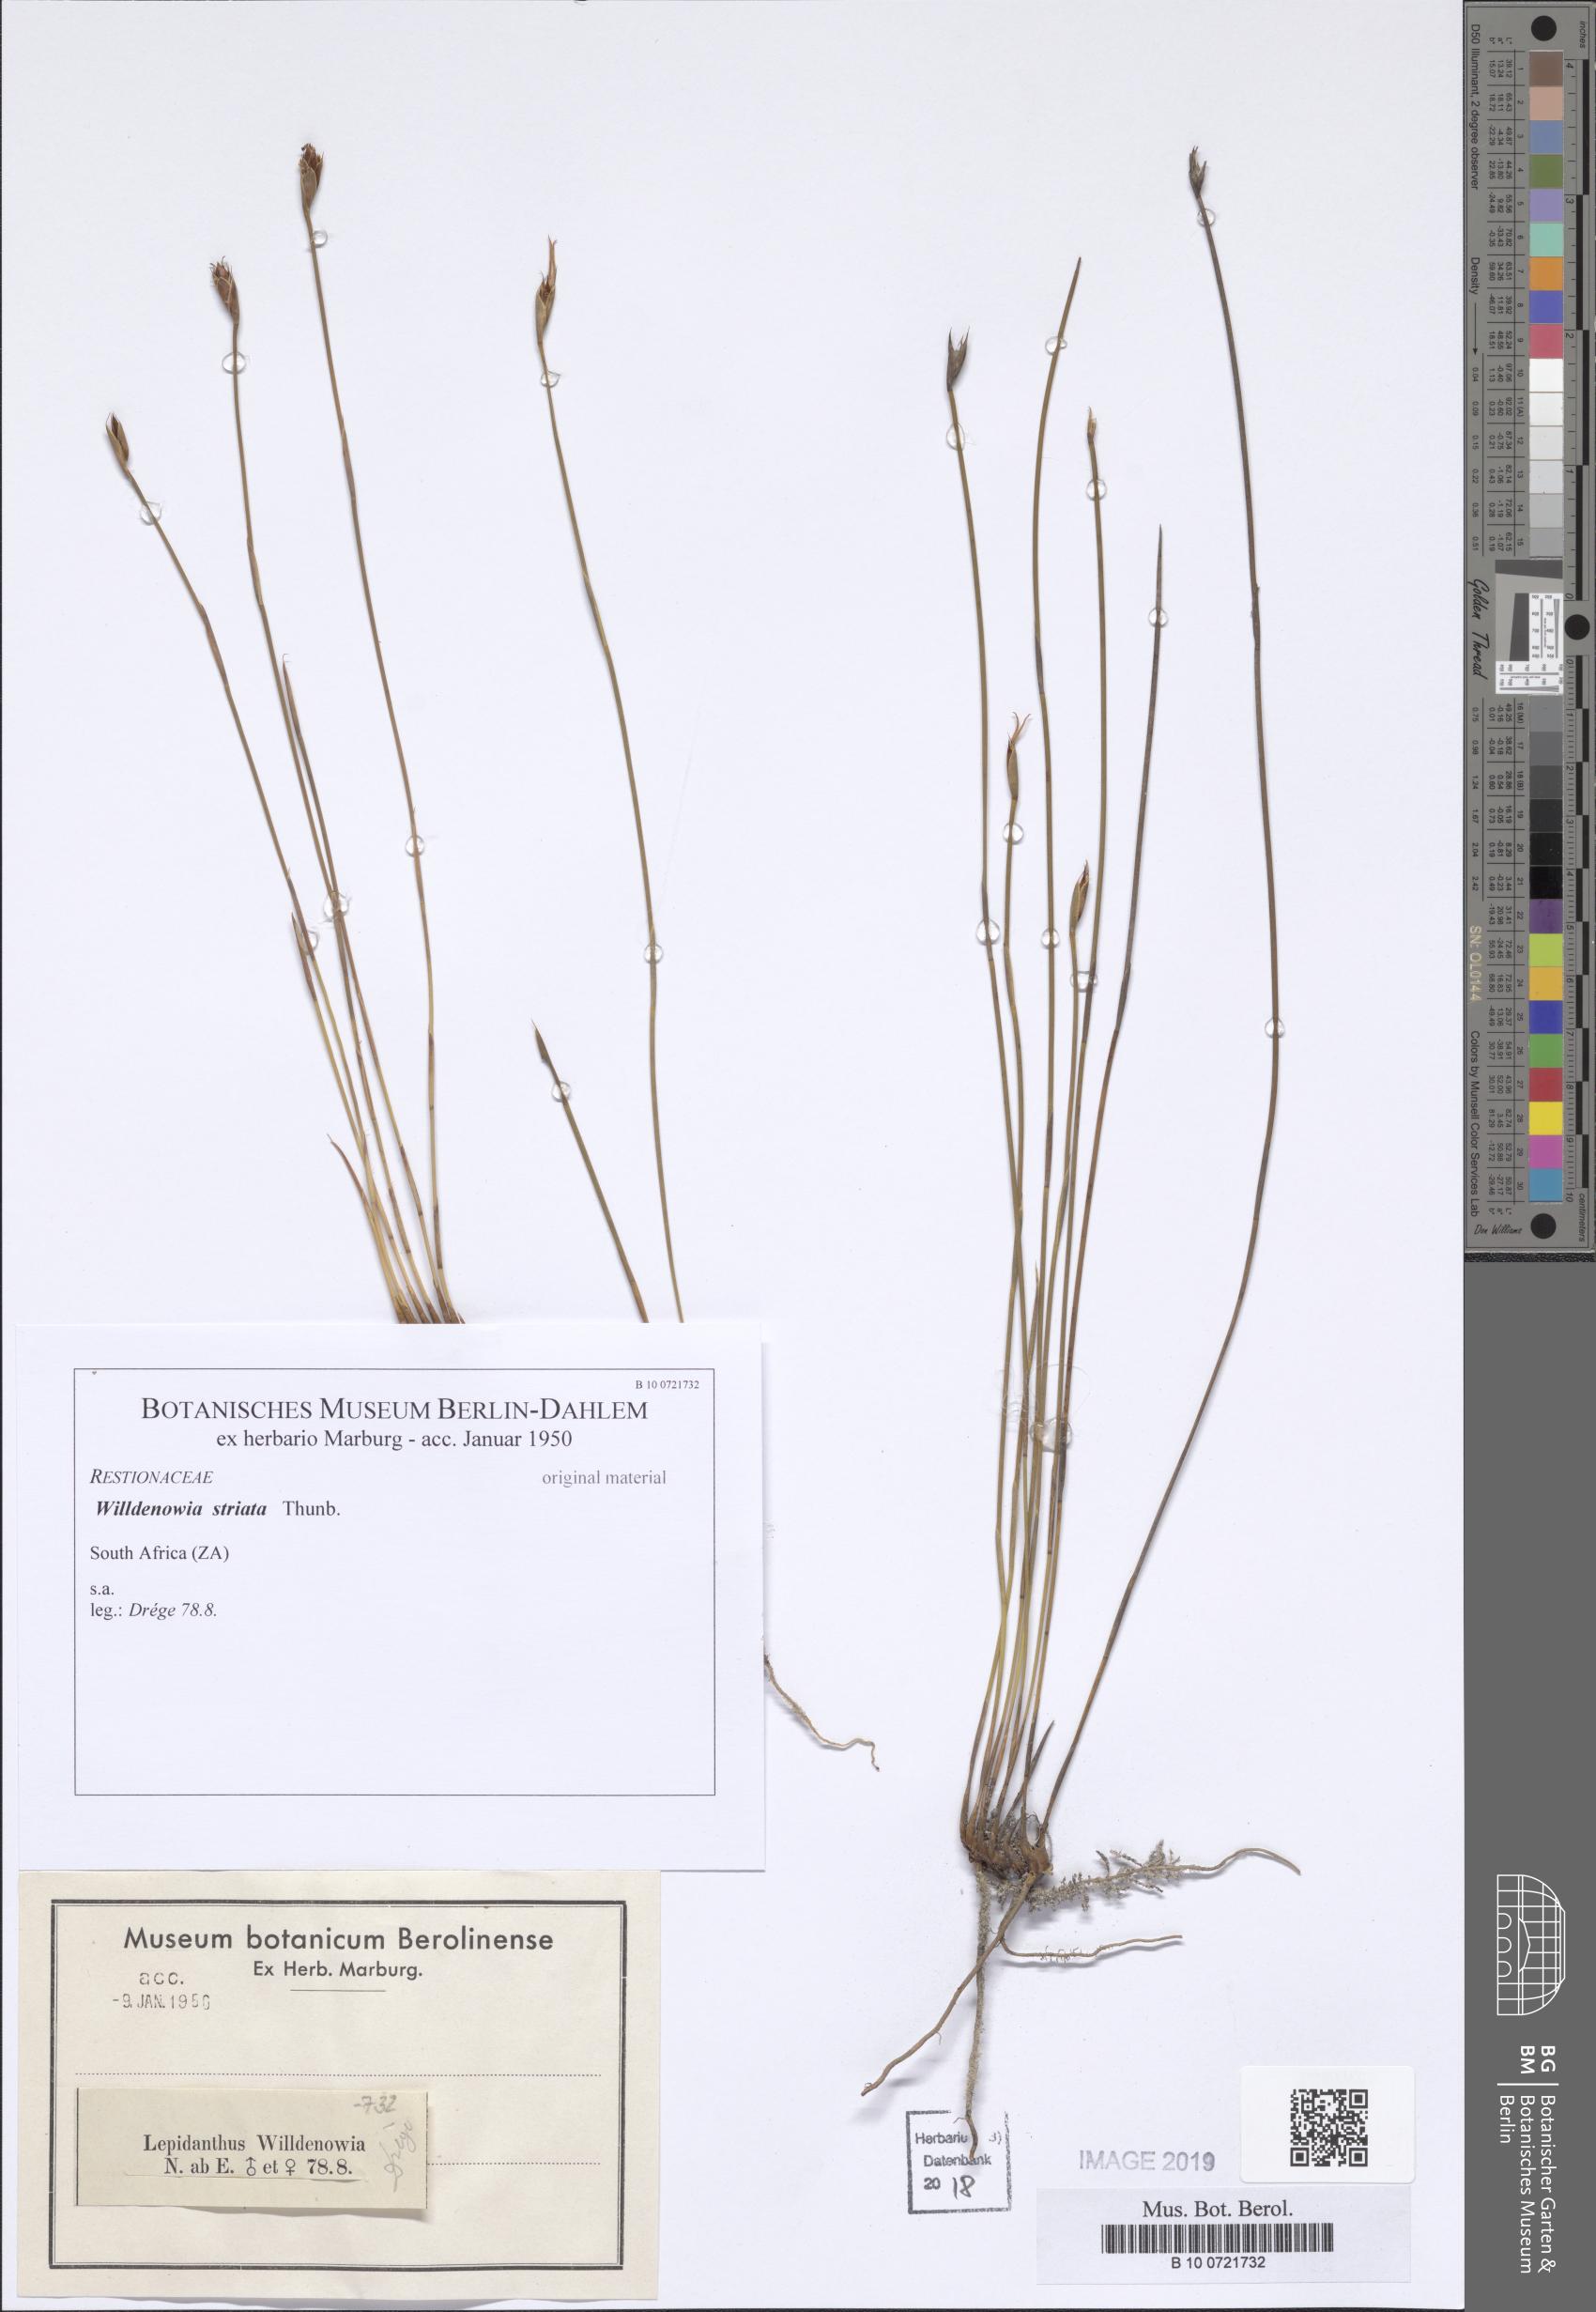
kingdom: Plantae
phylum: Tracheophyta
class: Liliopsida
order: Poales
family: Restionaceae
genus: Willdenowia
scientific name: Willdenowia incurvata
